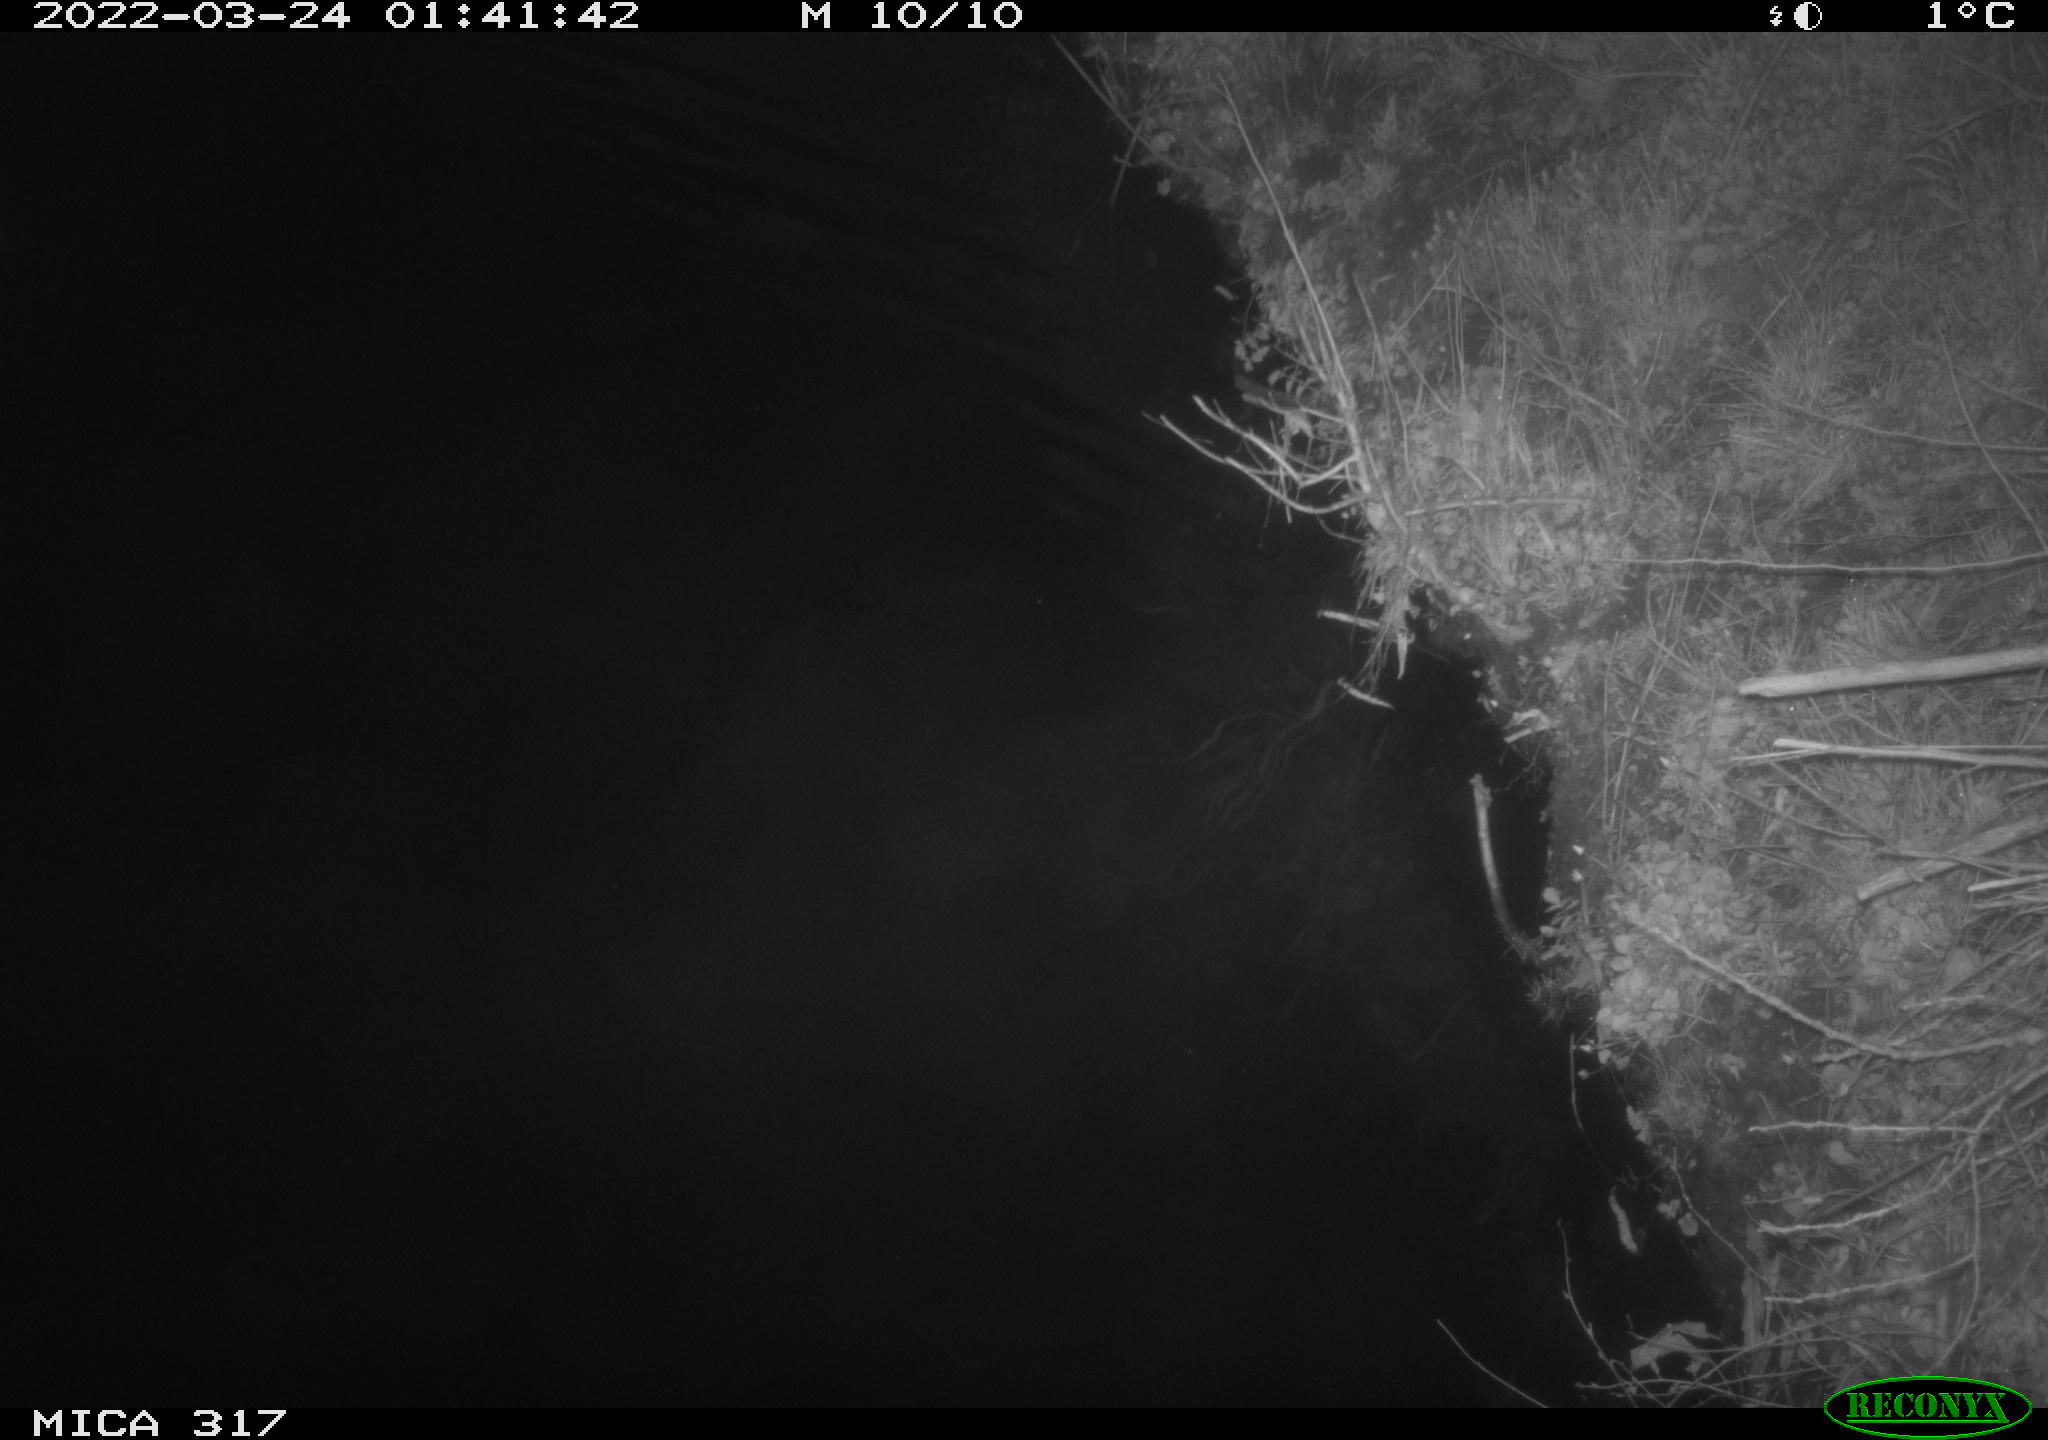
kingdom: Animalia
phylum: Chordata
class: Aves
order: Anseriformes
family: Anatidae
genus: Anas
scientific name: Anas platyrhynchos
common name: Mallard
